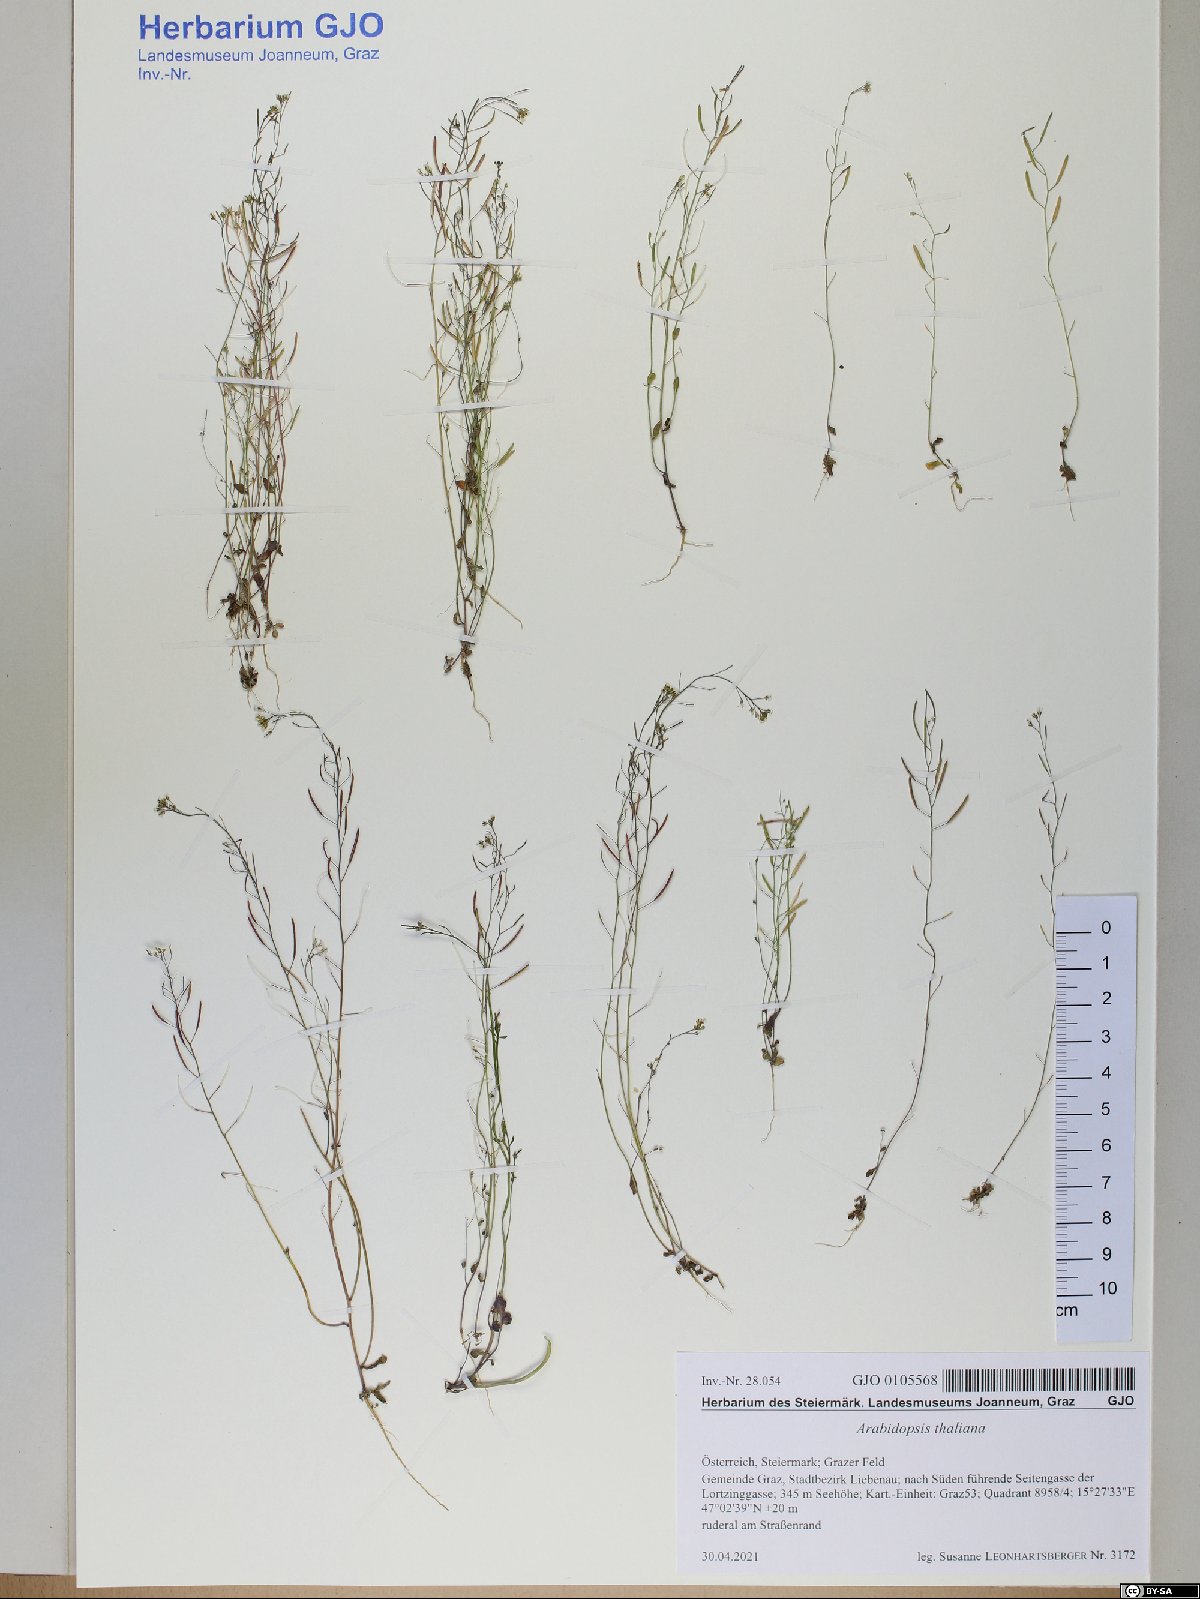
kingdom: Plantae
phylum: Tracheophyta
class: Magnoliopsida
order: Brassicales
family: Brassicaceae
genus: Arabidopsis
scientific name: Arabidopsis thaliana
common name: Thale cress
